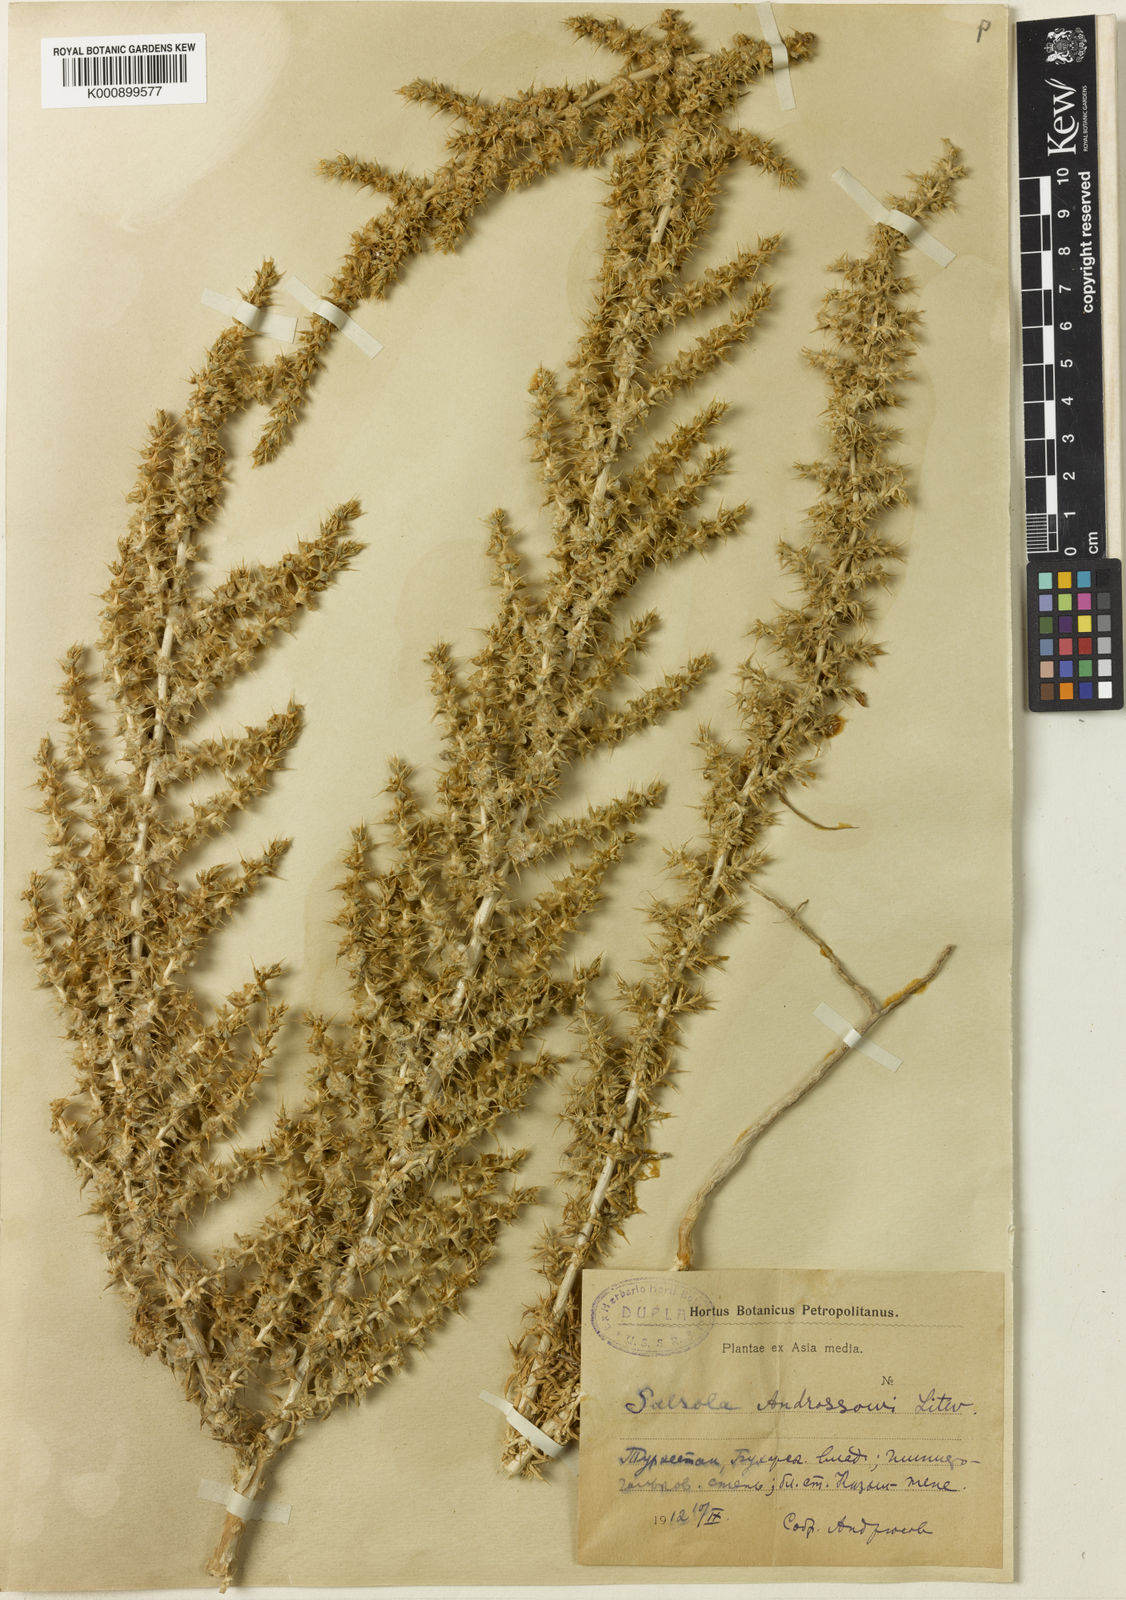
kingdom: Plantae
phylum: Tracheophyta
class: Magnoliopsida
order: Caryophyllales
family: Amaranthaceae
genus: Turania
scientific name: Turania androssowii
